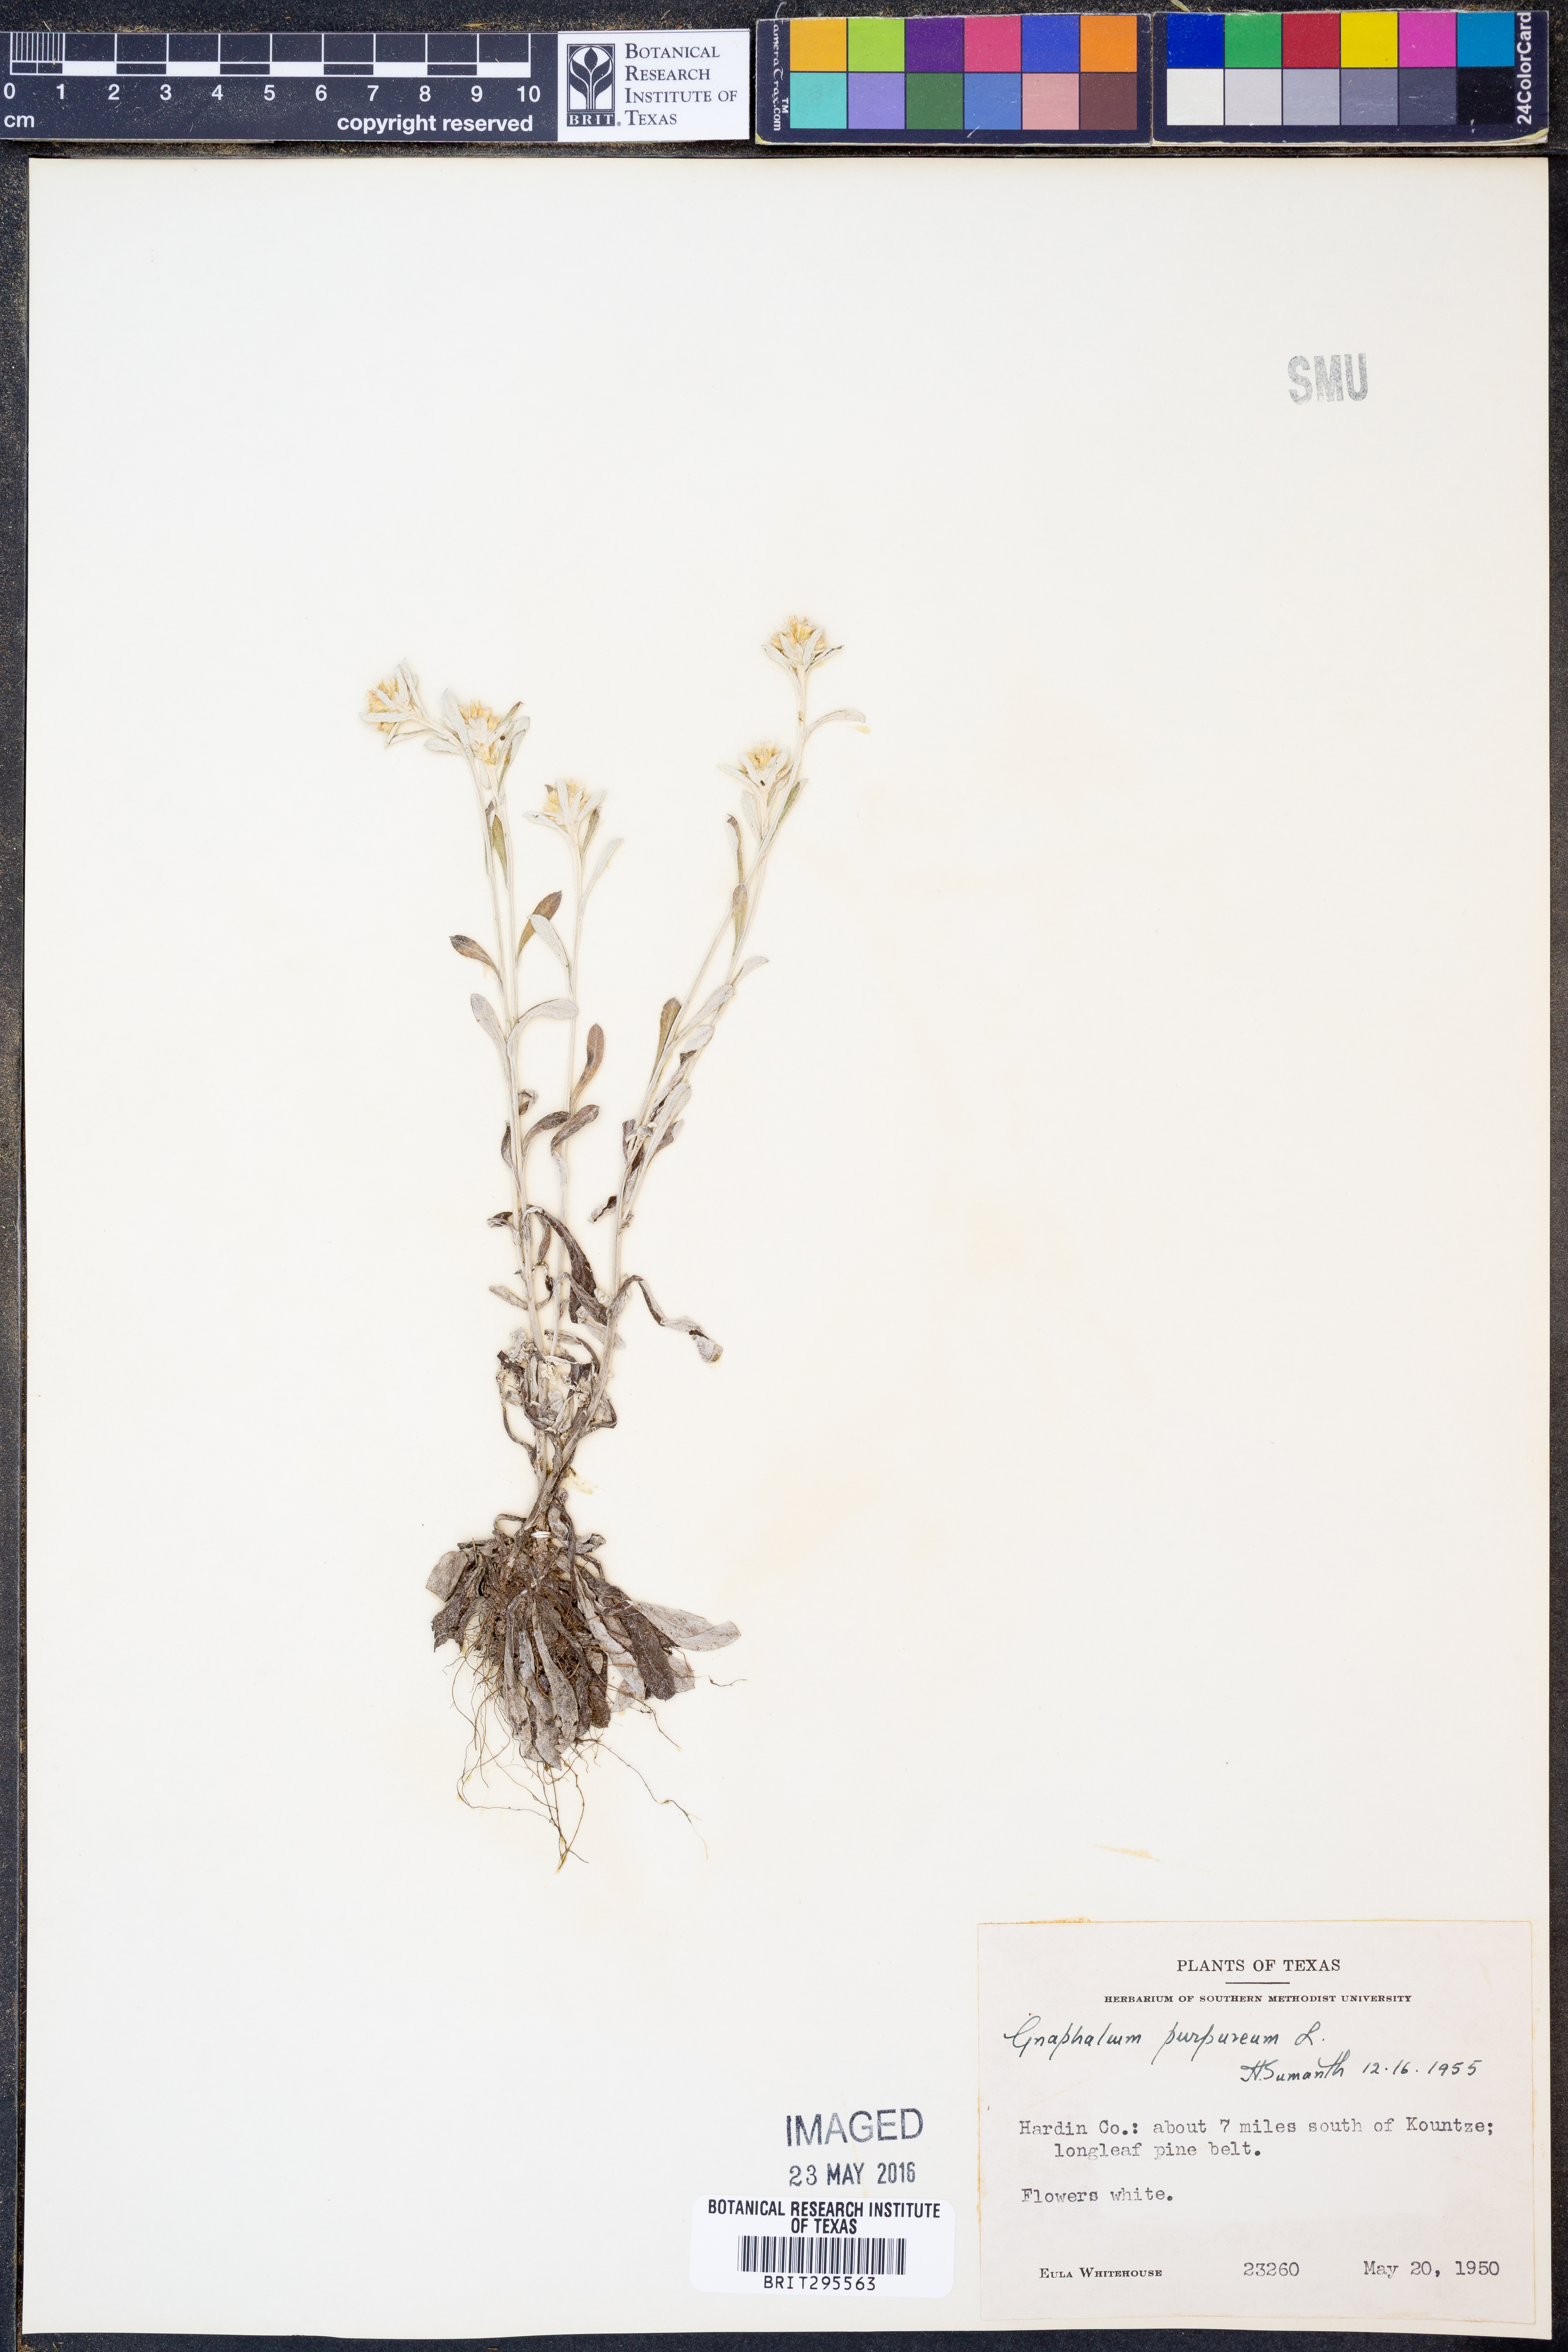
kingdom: Plantae
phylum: Tracheophyta
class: Magnoliopsida
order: Asterales
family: Asteraceae
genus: Gamochaeta
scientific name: Gamochaeta purpurea
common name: Purple cudweed
